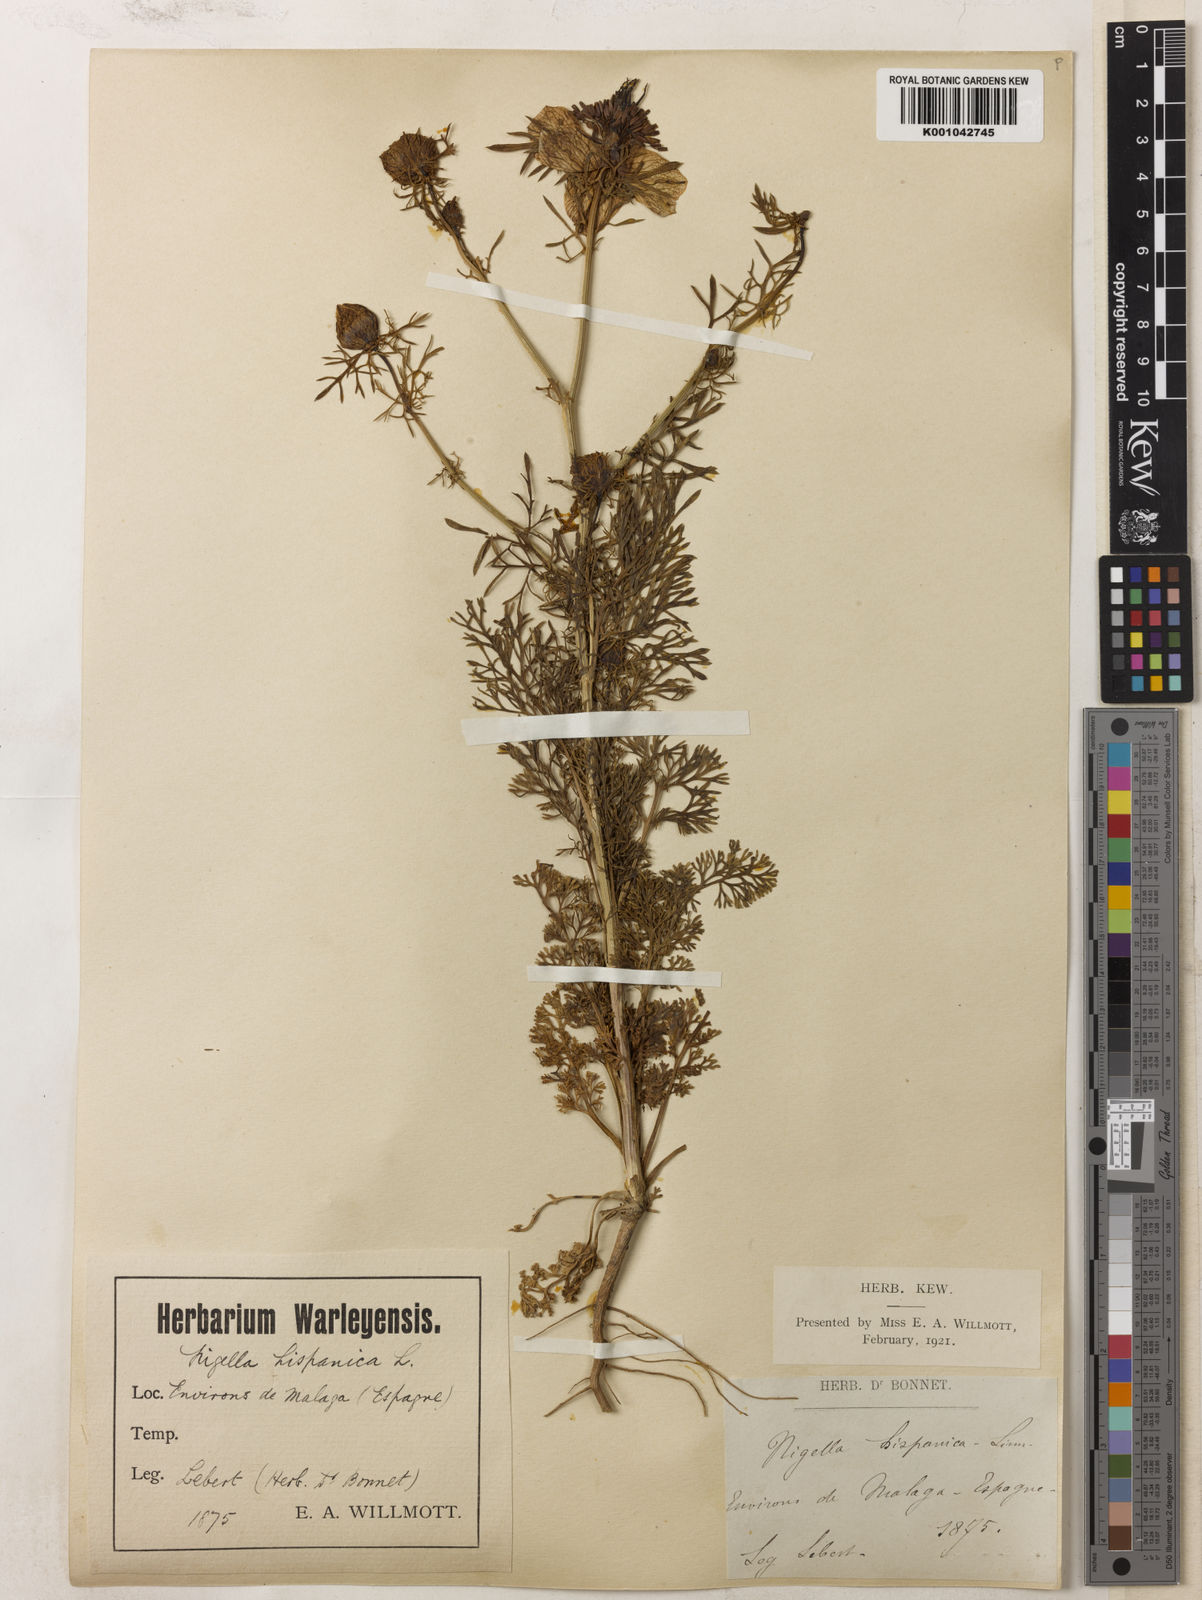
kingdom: Plantae
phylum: Tracheophyta
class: Magnoliopsida
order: Ranunculales
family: Ranunculaceae
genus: Nigella
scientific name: Nigella hispanica
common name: Fennel-flower
